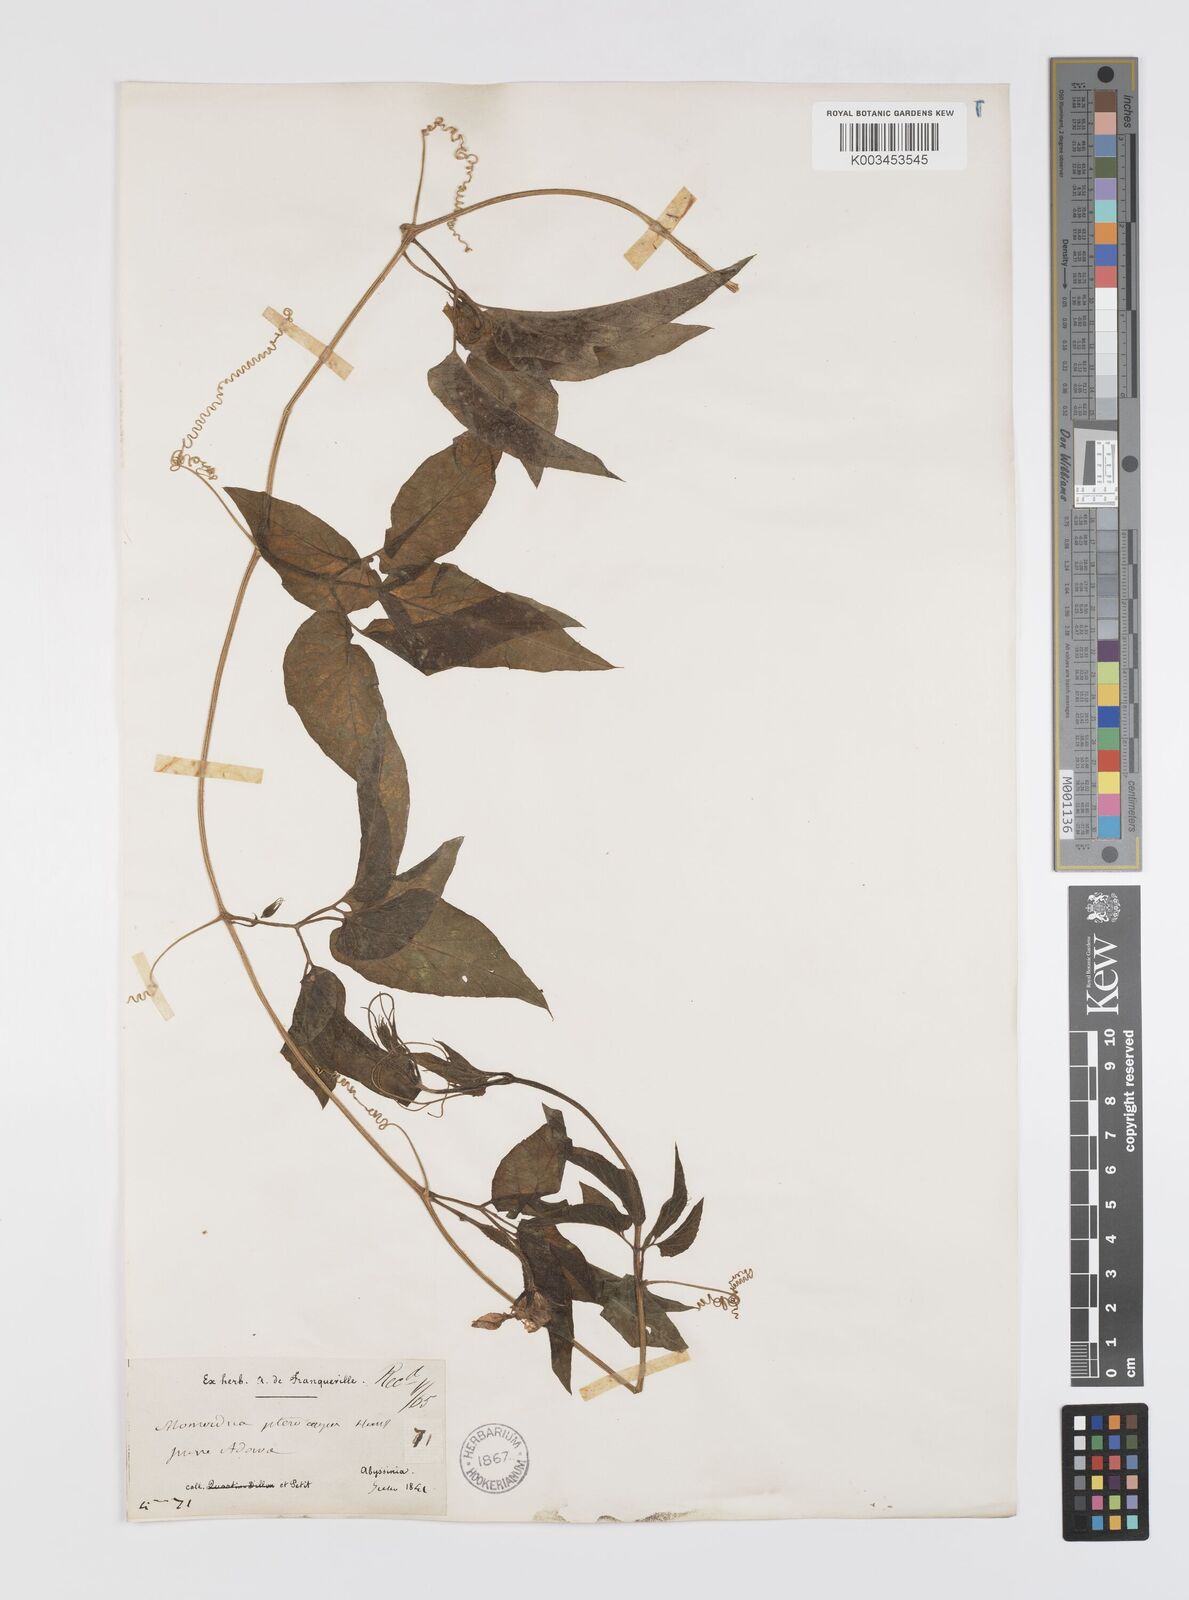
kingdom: Plantae
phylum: Tracheophyta
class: Magnoliopsida
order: Cucurbitales
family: Cucurbitaceae
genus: Momordica
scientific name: Momordica pterocarpa
